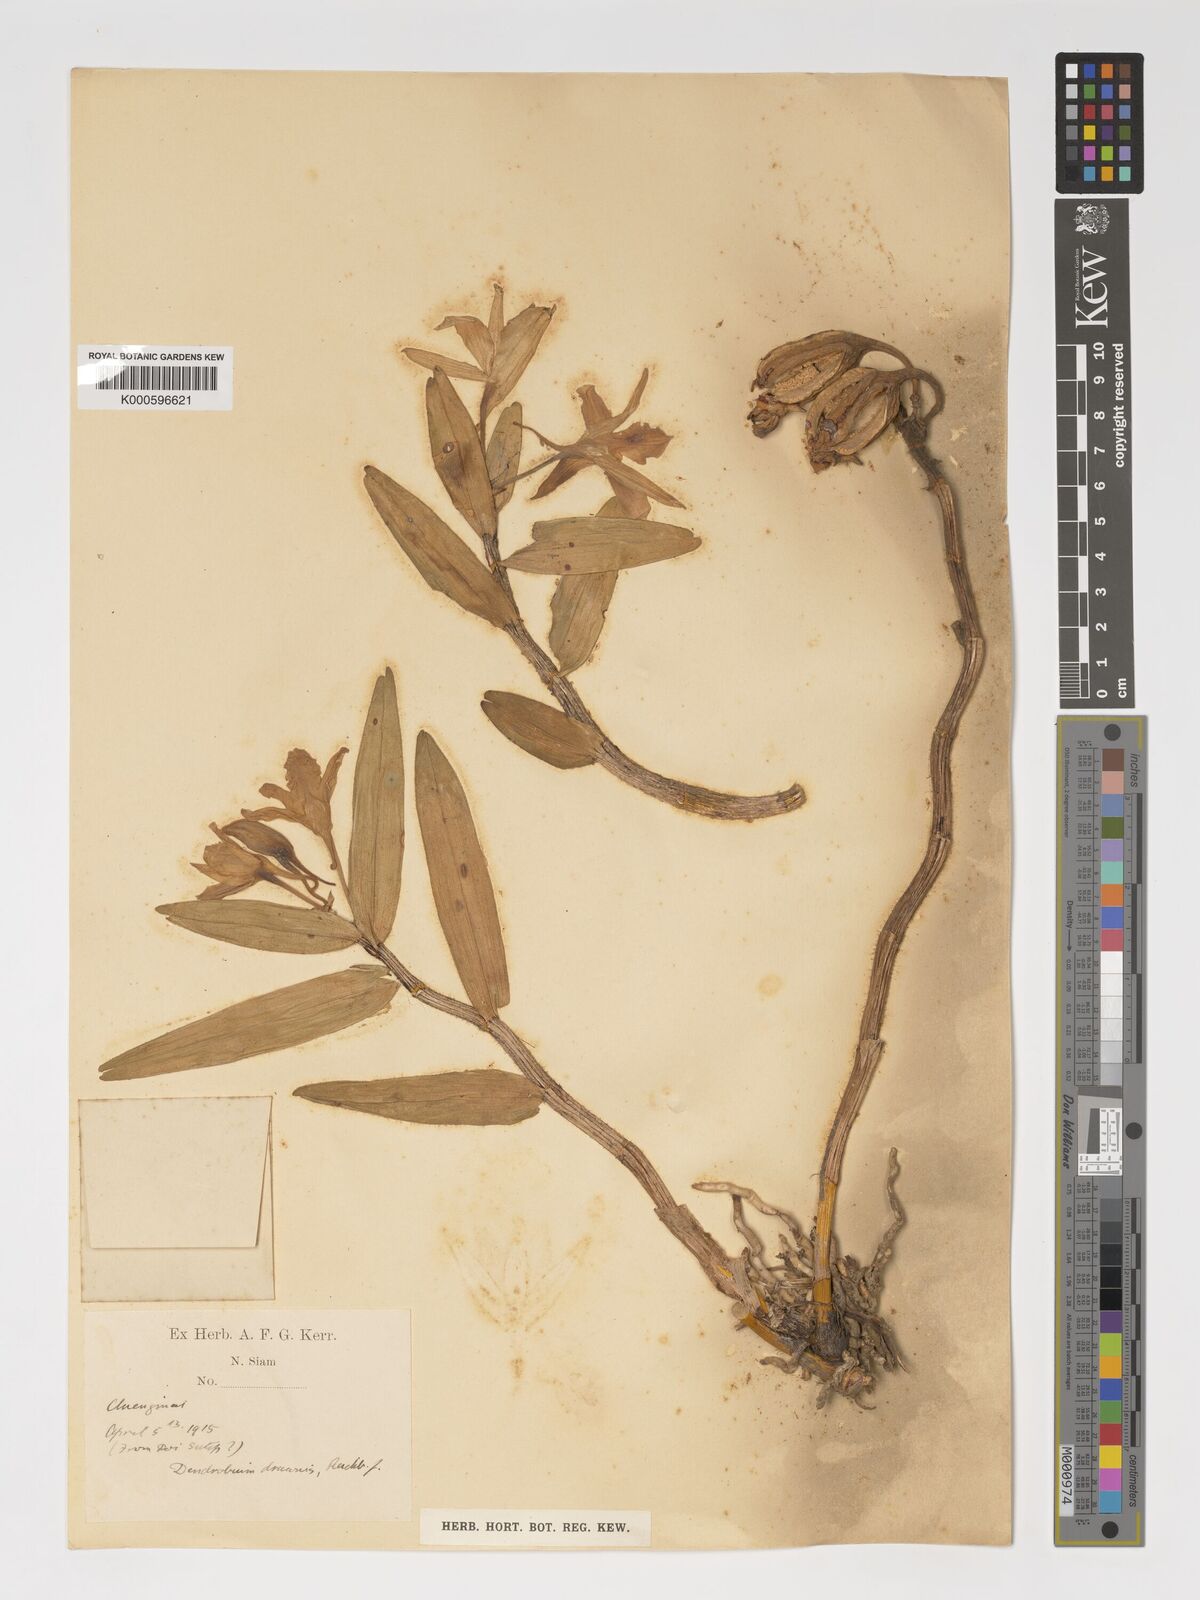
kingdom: Plantae
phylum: Tracheophyta
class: Liliopsida
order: Asparagales
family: Orchidaceae
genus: Dendrobium
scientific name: Dendrobium draconis
